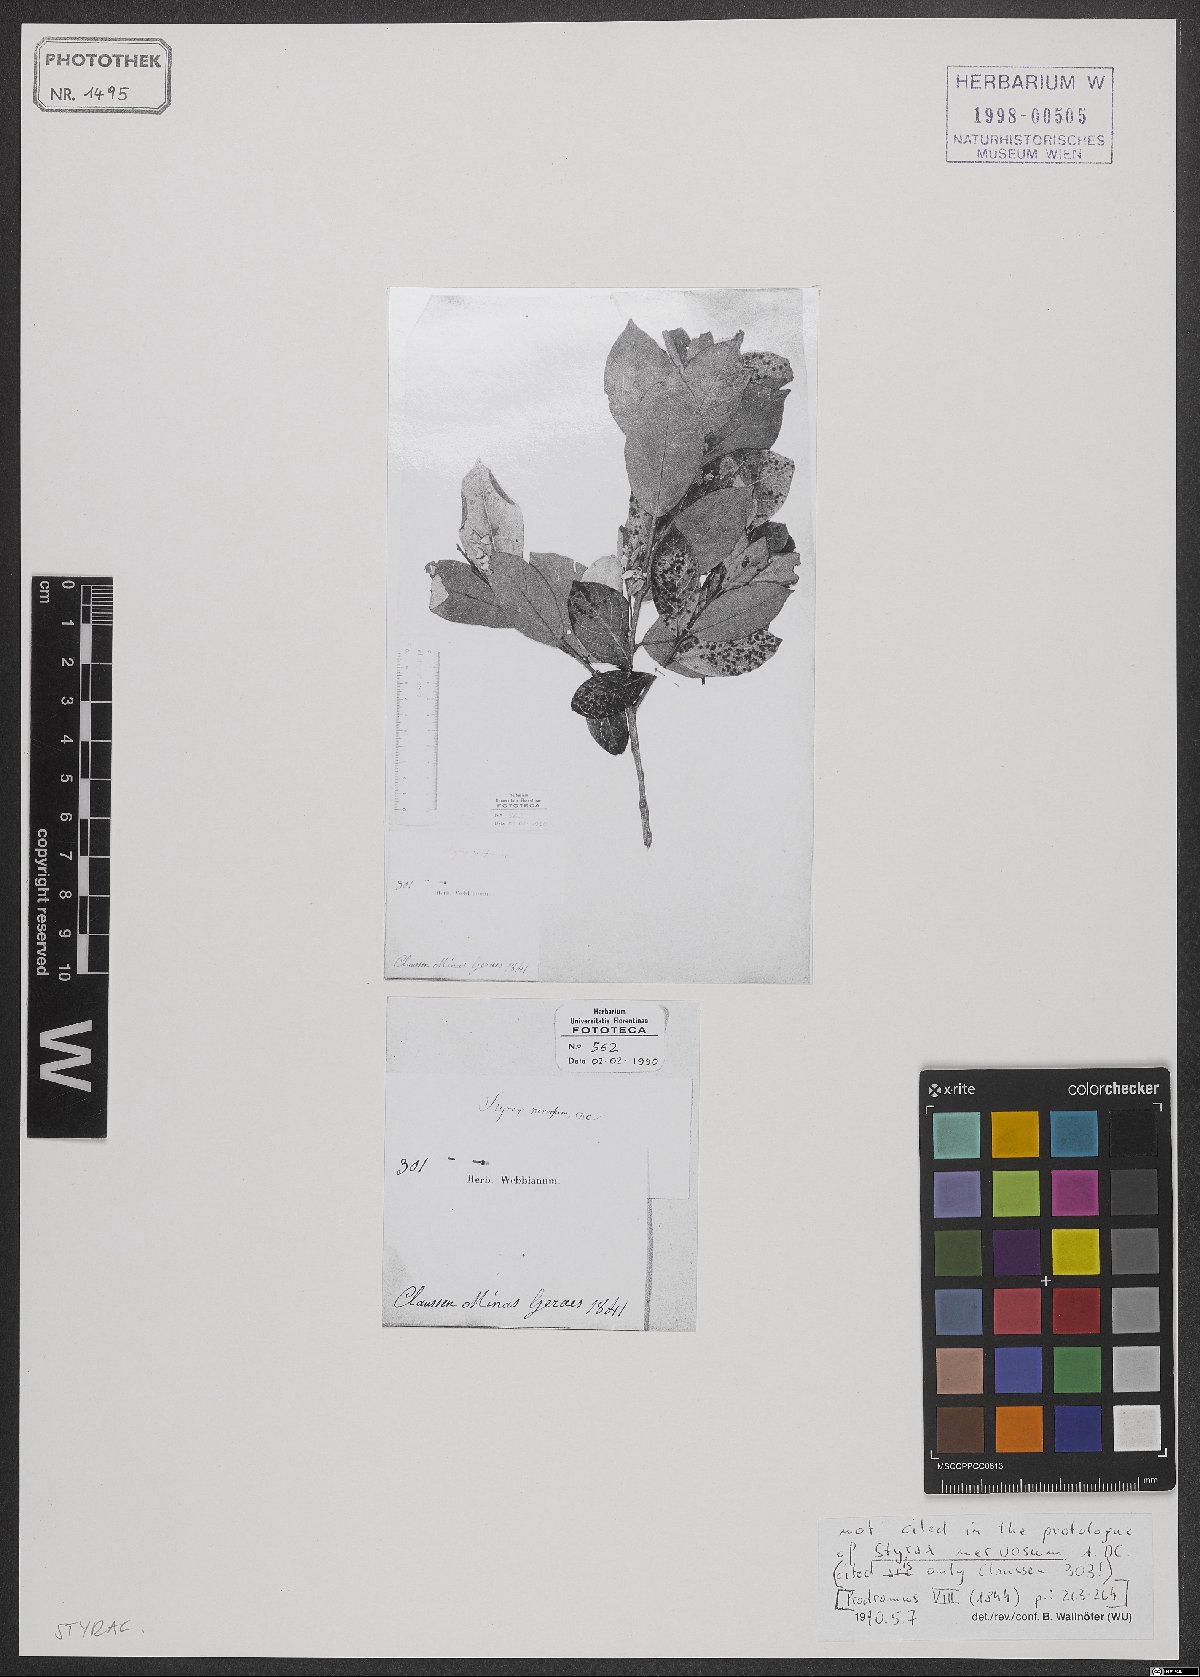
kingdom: Plantae
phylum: Tracheophyta
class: Magnoliopsida
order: Ericales
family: Styracaceae
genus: Styrax
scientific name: Styrax ferrugineus
